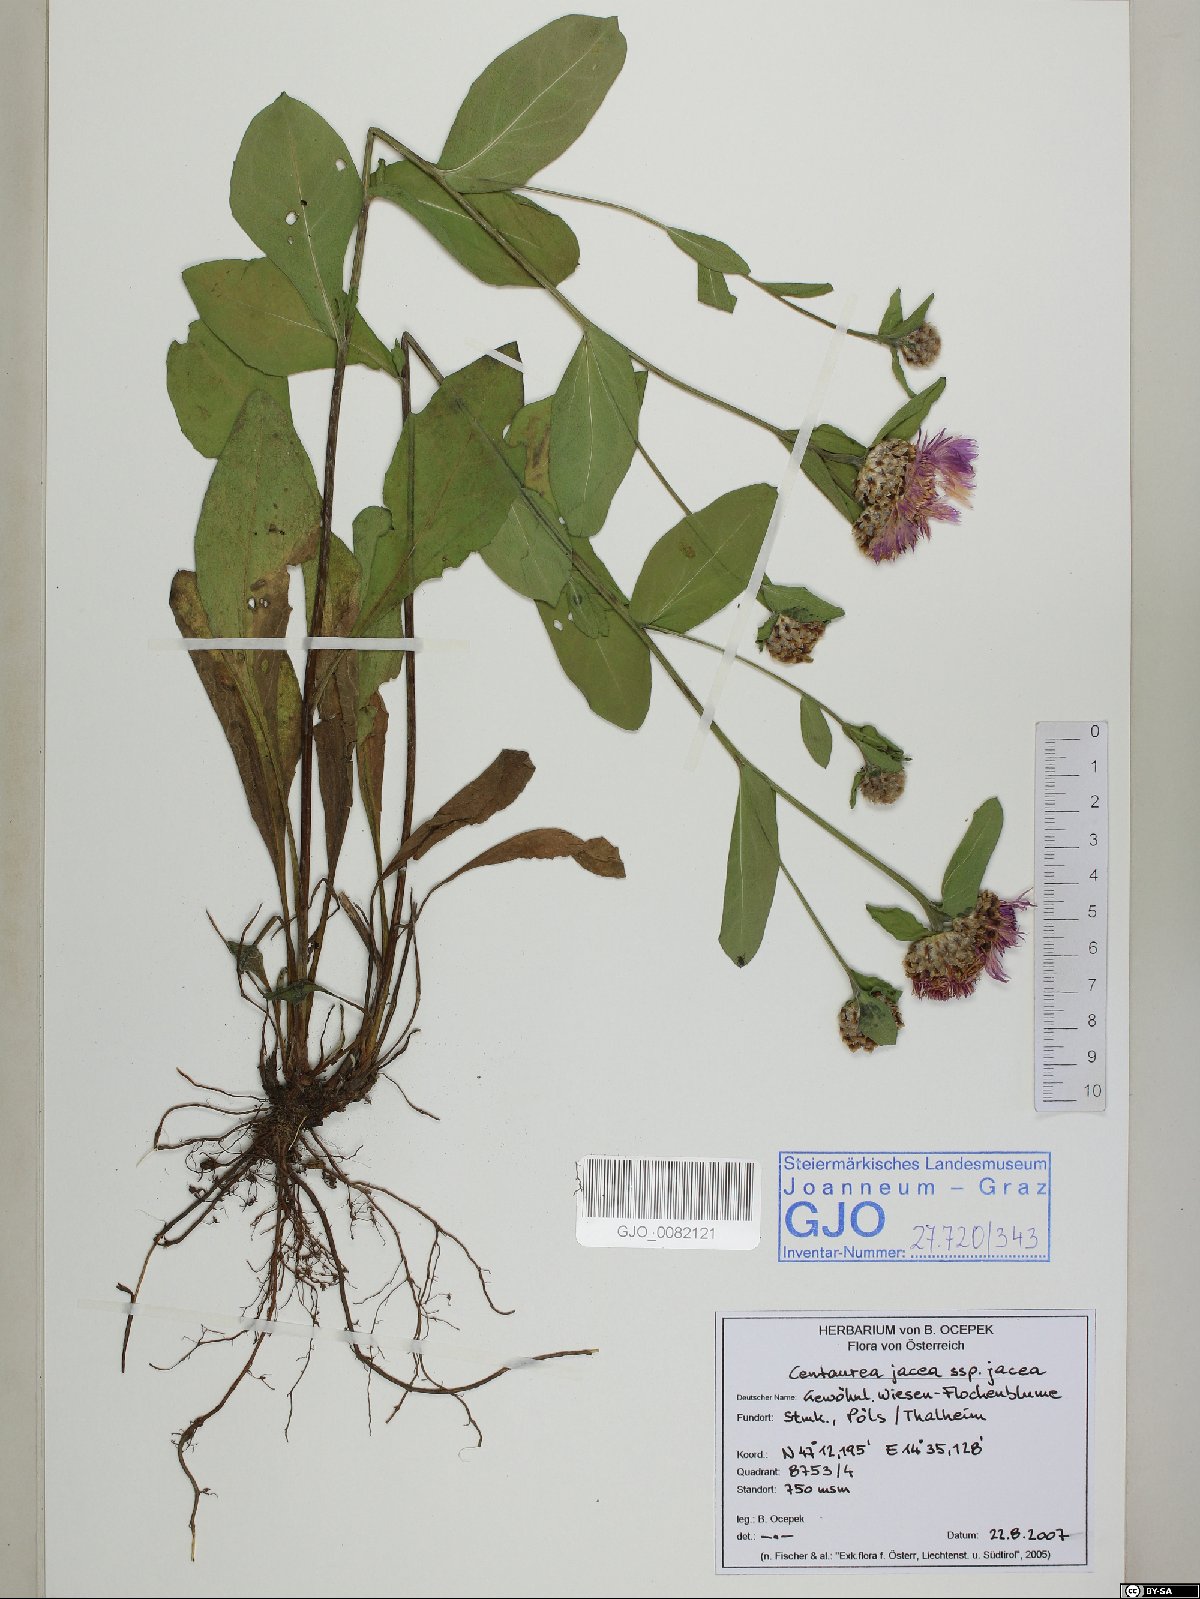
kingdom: Plantae
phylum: Tracheophyta
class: Magnoliopsida
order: Asterales
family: Asteraceae
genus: Centaurea
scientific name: Centaurea jacea
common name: Brown knapweed
